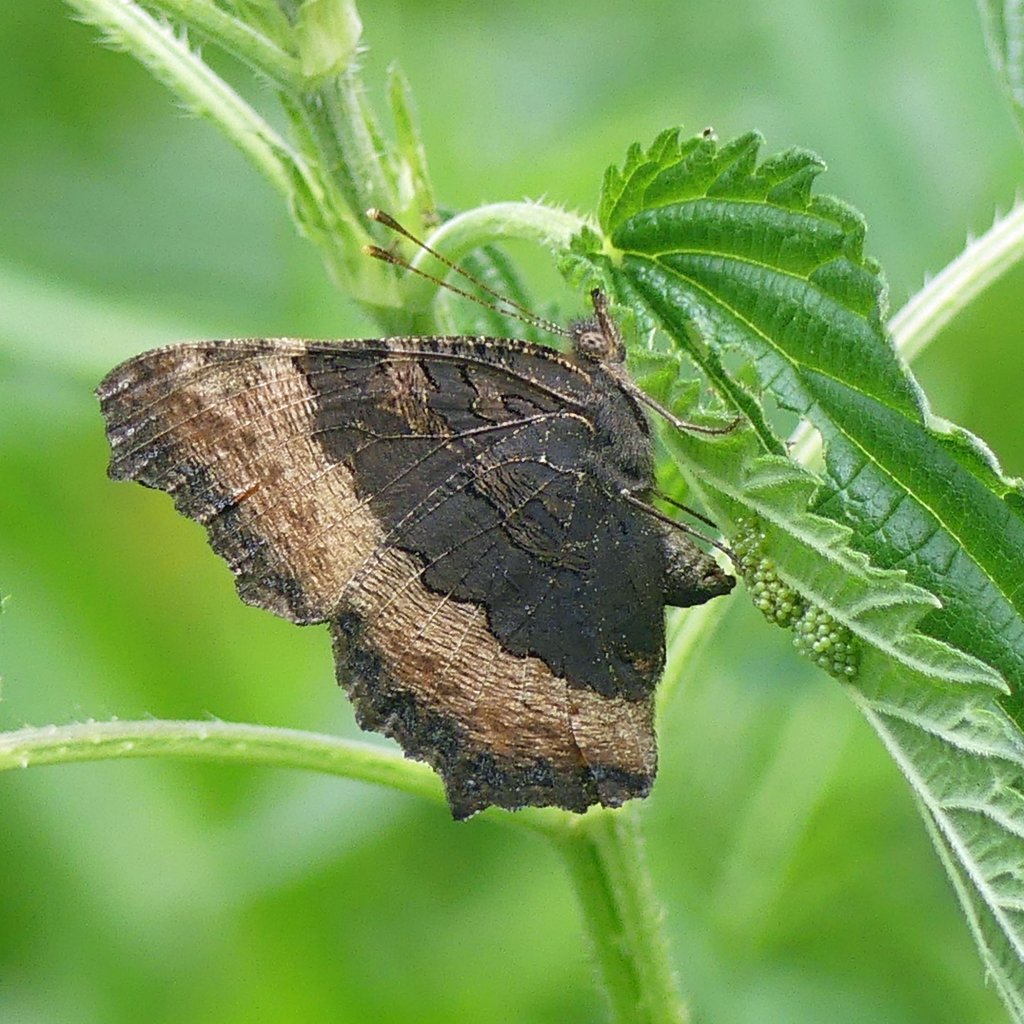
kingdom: Animalia
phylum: Arthropoda
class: Insecta
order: Lepidoptera
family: Nymphalidae
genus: Aglais
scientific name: Aglais milberti
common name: Milbert's Tortoiseshell
